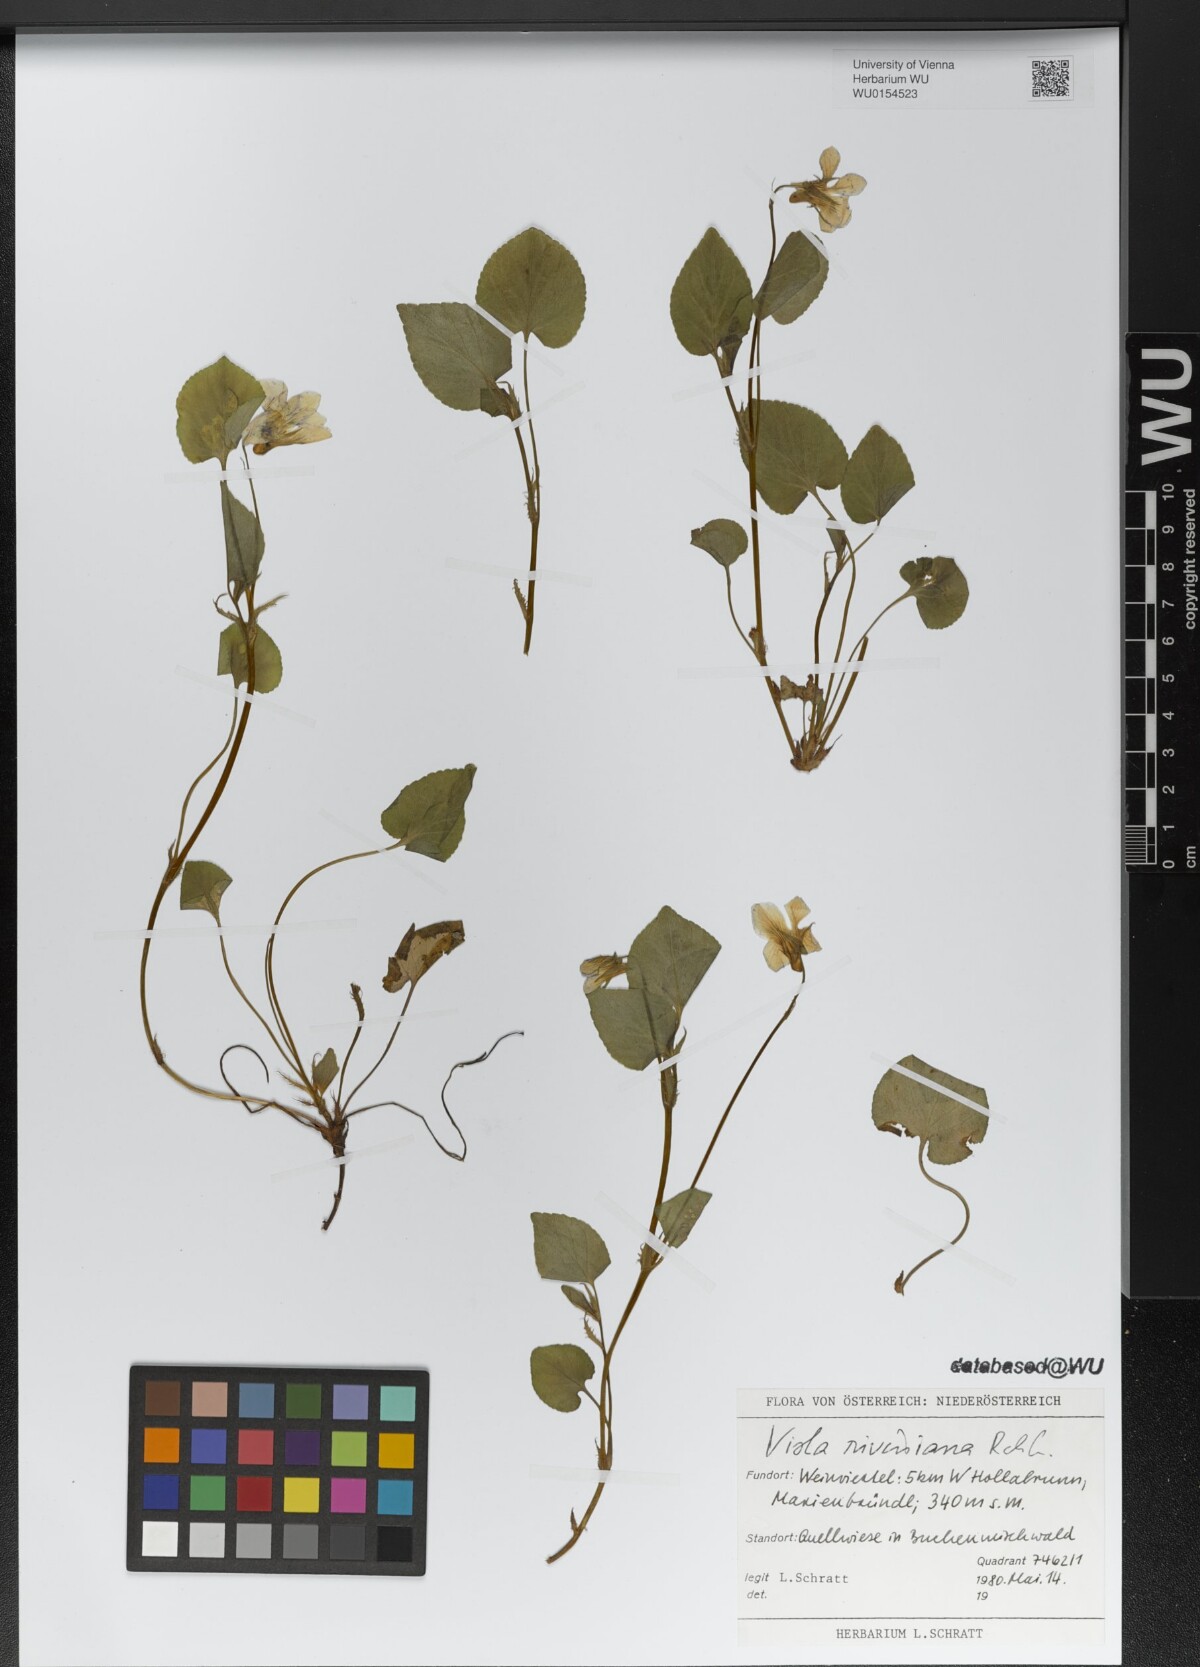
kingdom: Plantae
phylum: Tracheophyta
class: Magnoliopsida
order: Malpighiales
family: Violaceae
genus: Viola
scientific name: Viola riviniana
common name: Common dog-violet
